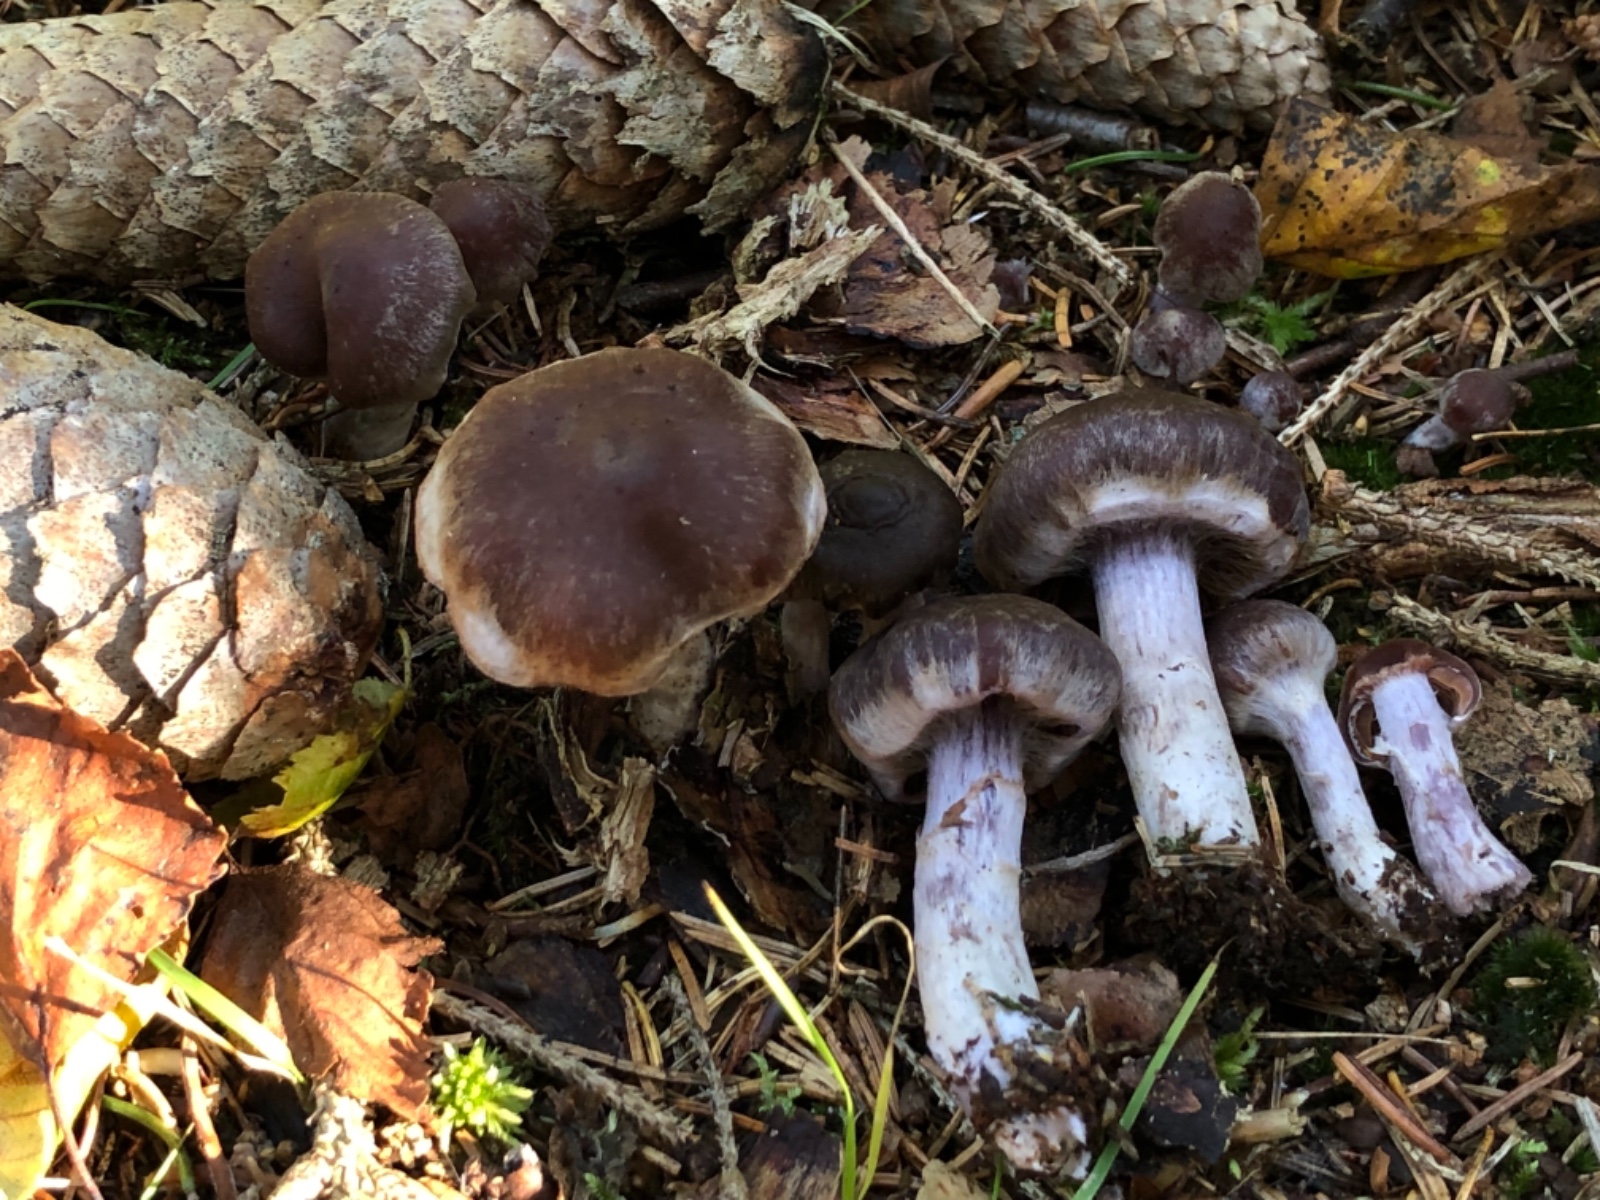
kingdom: Fungi
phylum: Basidiomycota
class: Agaricomycetes
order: Agaricales
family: Cortinariaceae
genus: Cortinarius
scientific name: Cortinarius tortuosus
